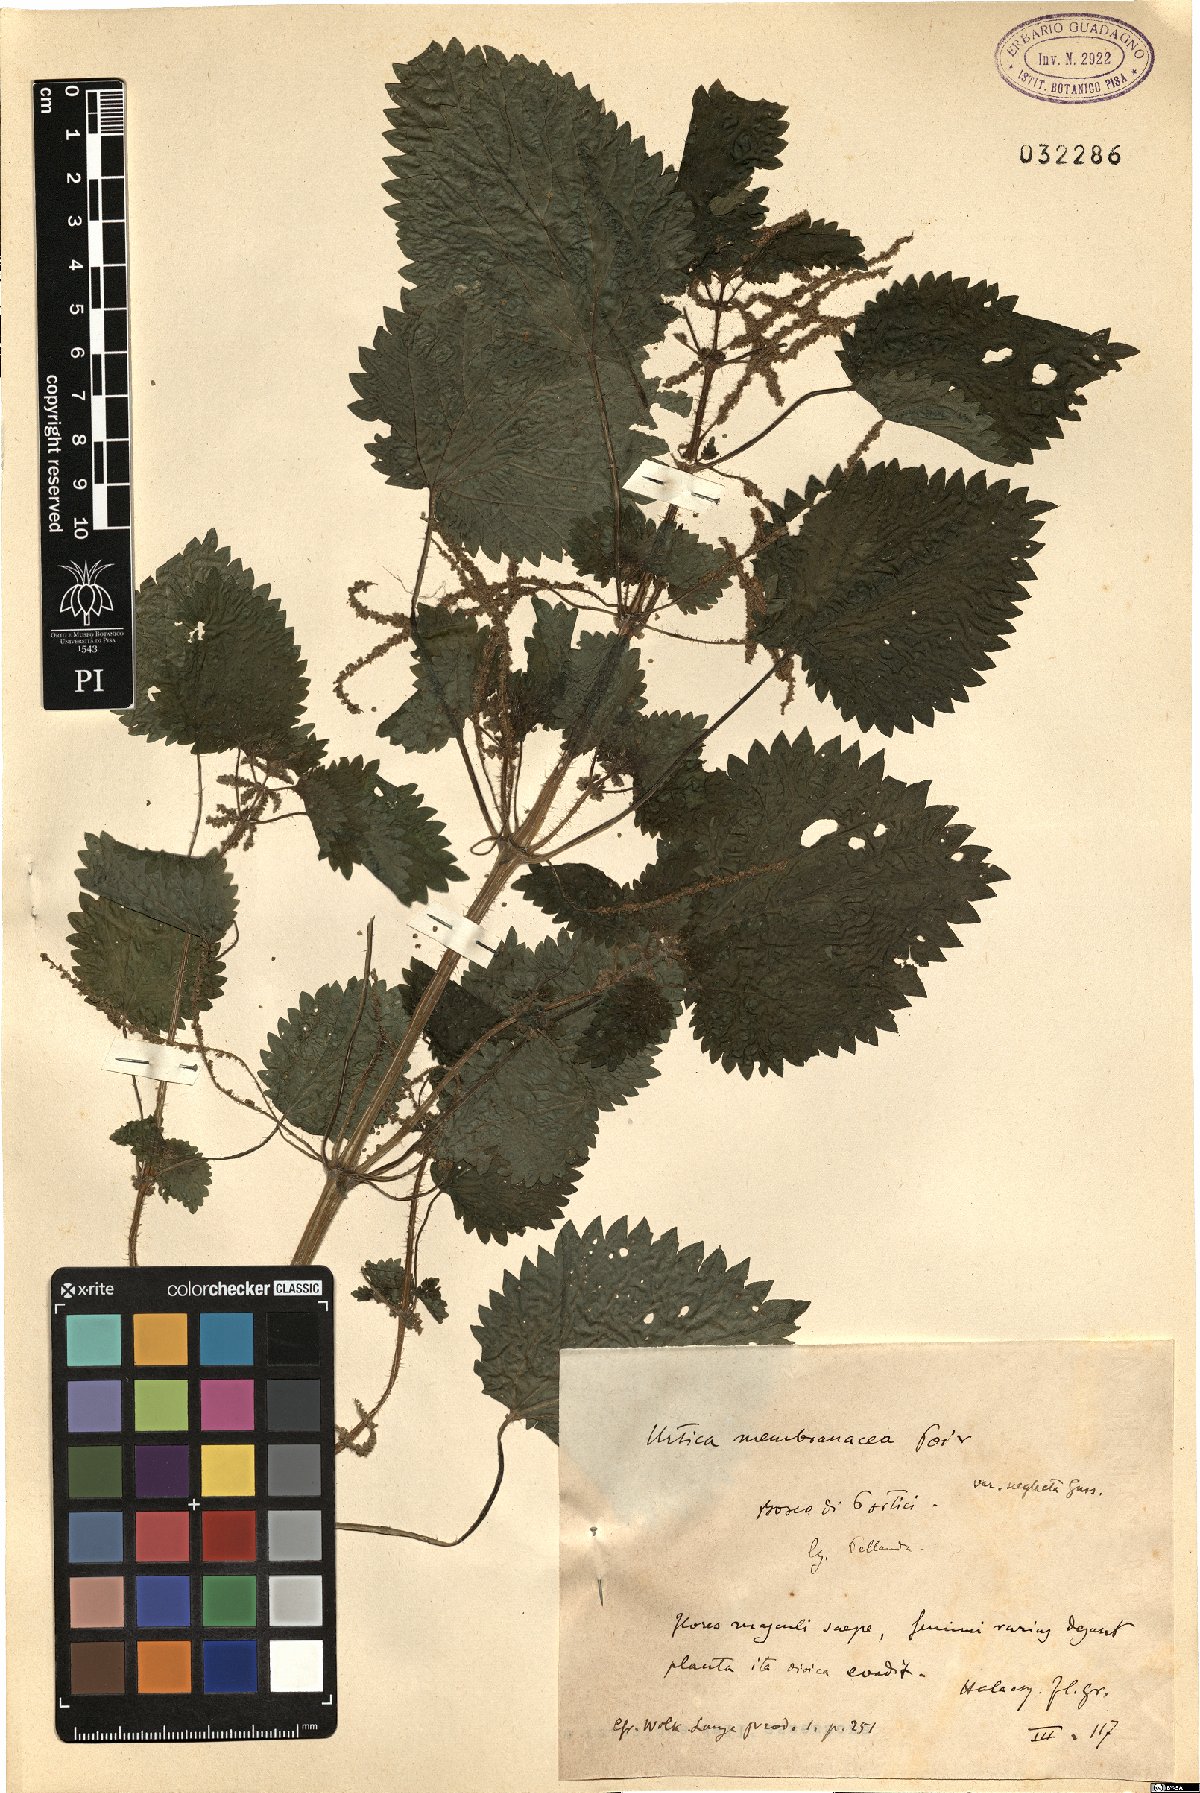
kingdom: Plantae
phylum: Tracheophyta
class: Magnoliopsida
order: Rosales
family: Urticaceae
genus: Urtica
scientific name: Urtica membranacea
